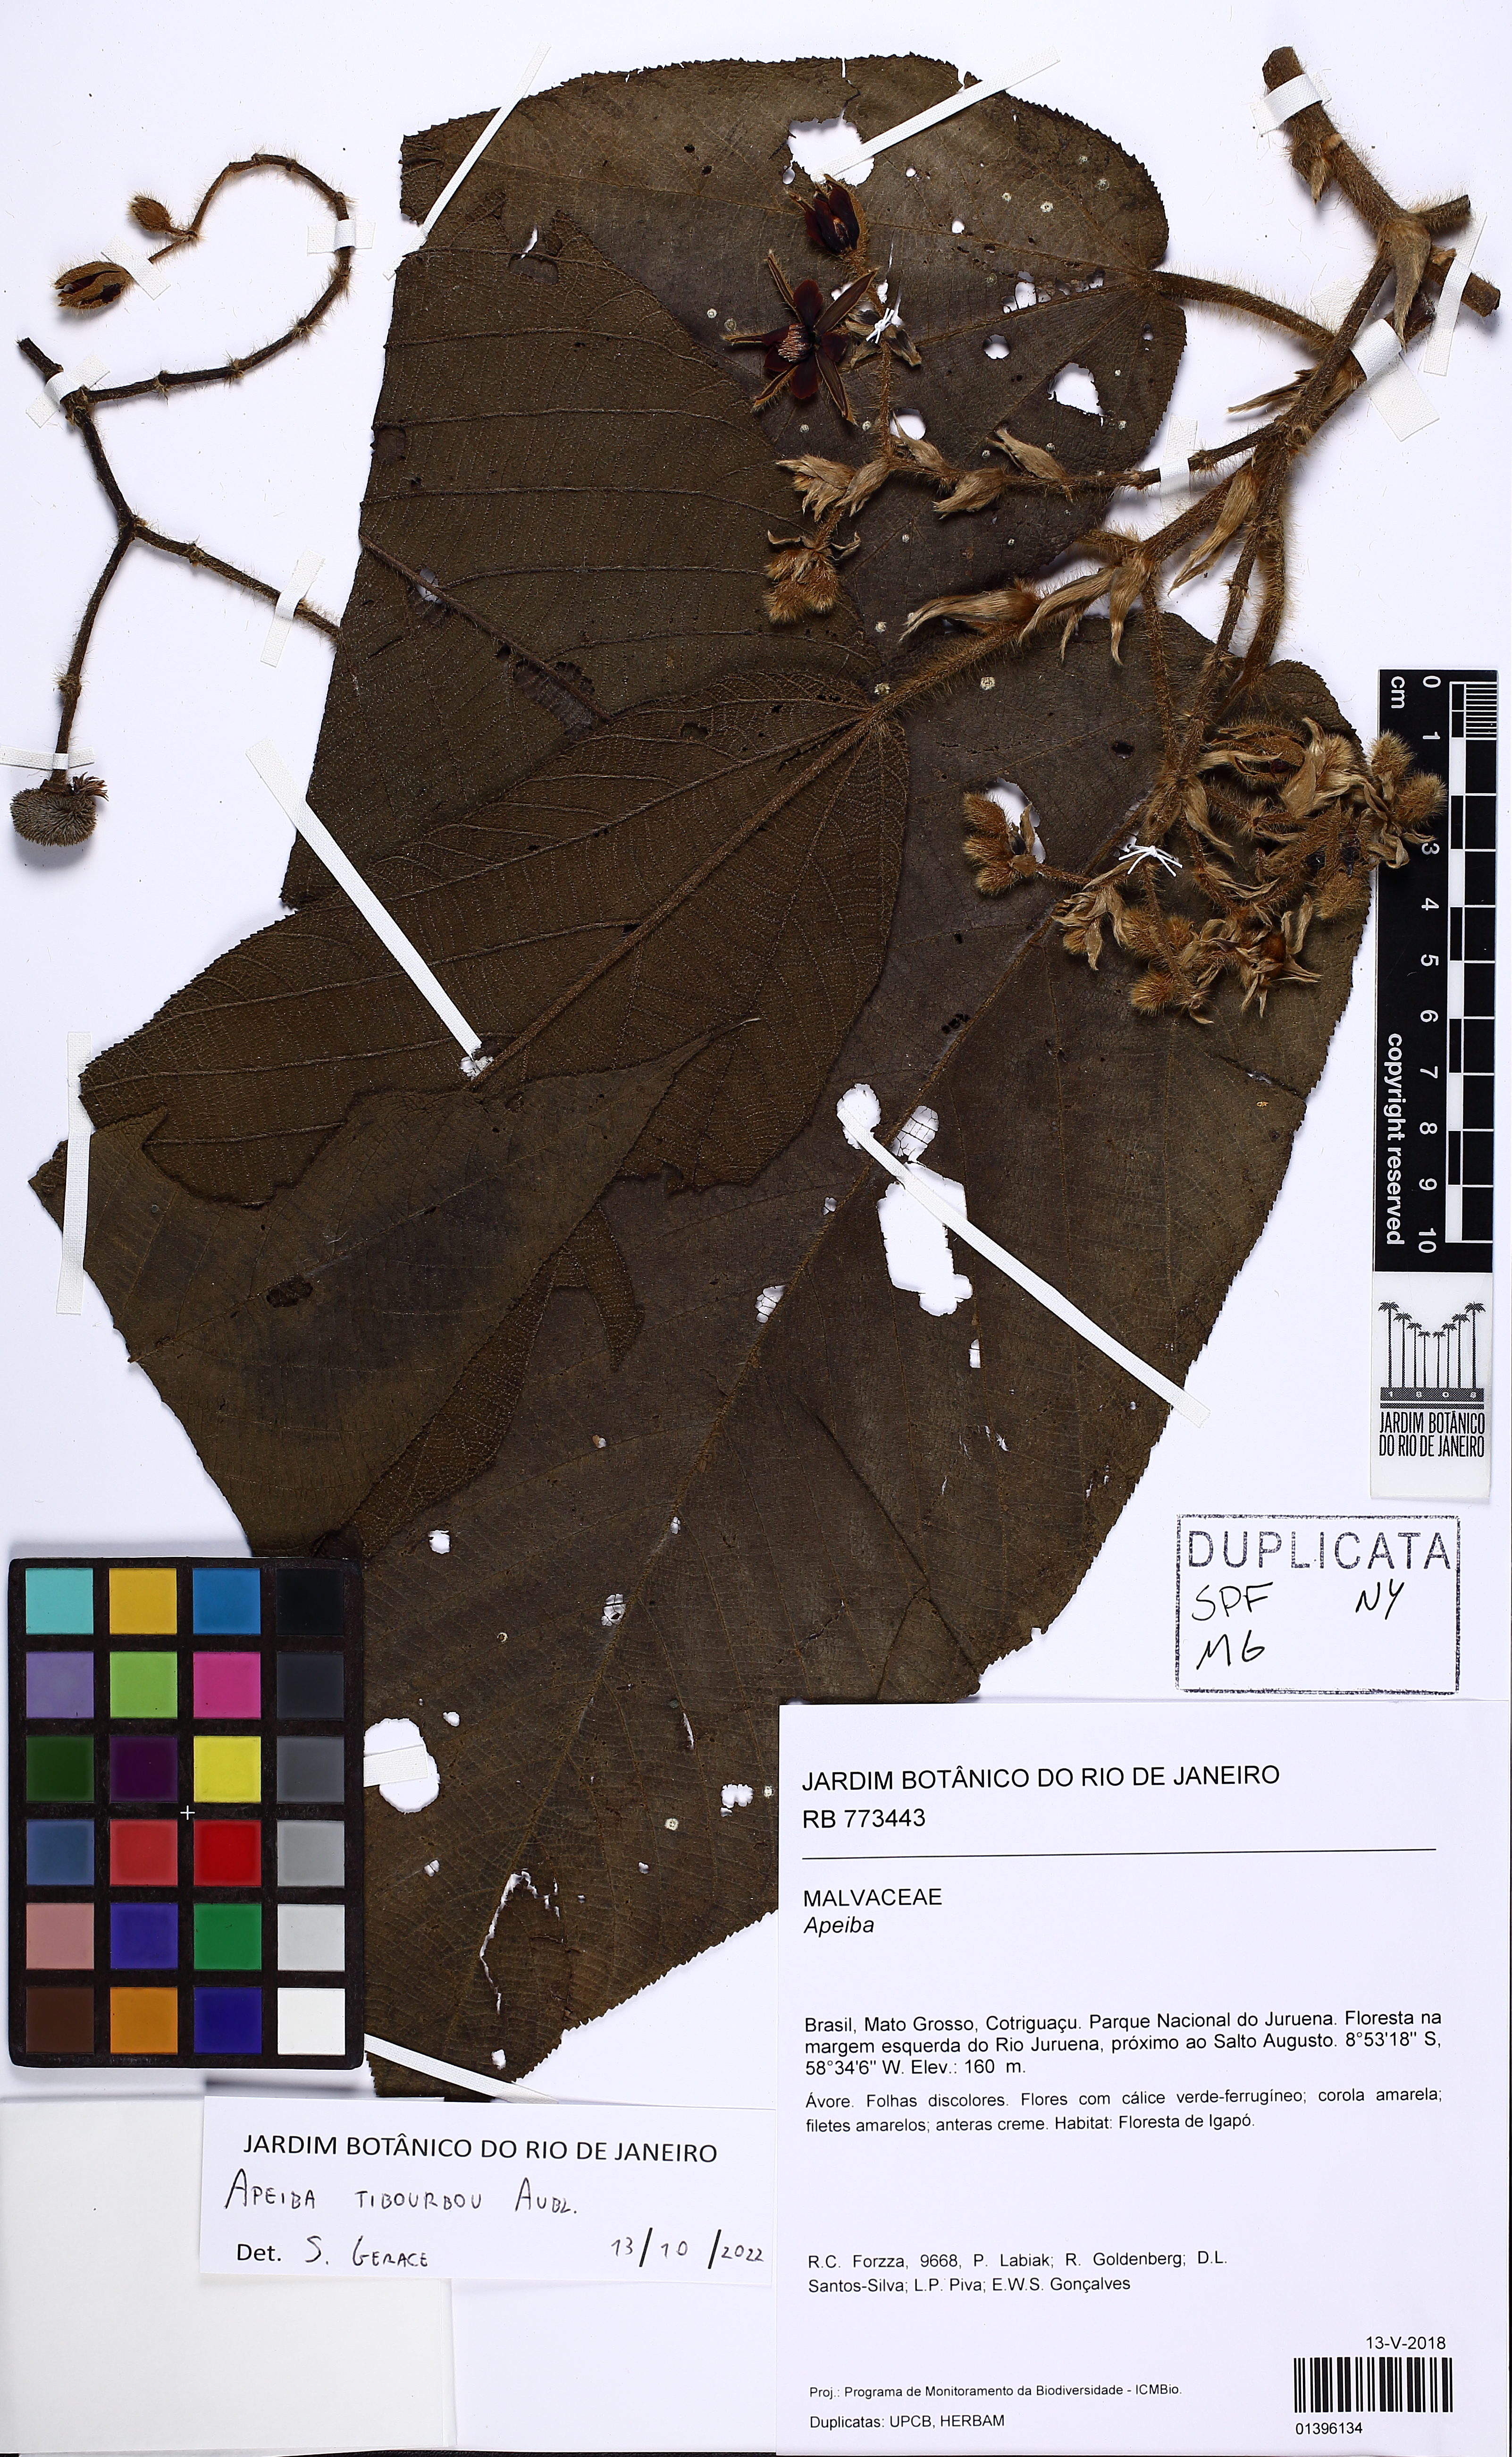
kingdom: Plantae
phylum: Tracheophyta
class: Magnoliopsida
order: Malvales
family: Malvaceae
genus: Apeiba
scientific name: Apeiba tibourbou
